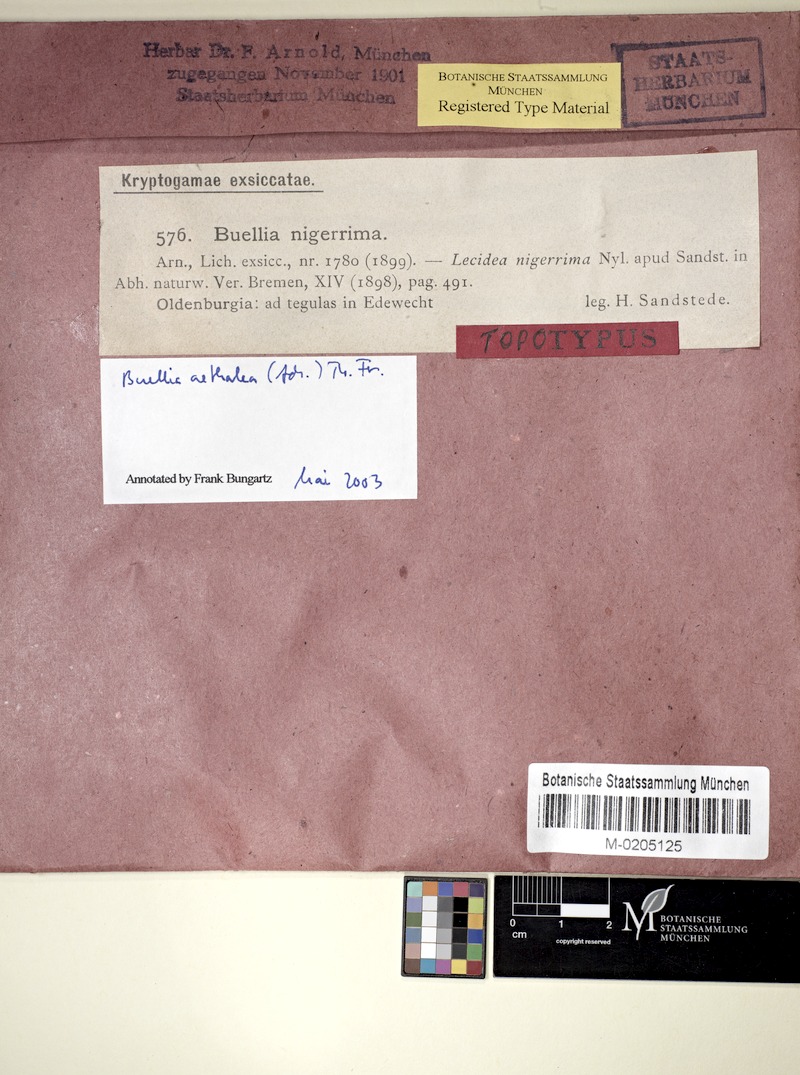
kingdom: Fungi
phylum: Ascomycota
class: Lecanoromycetes
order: Caliciales
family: Caliciaceae
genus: Buellia
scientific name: Buellia aethalea
